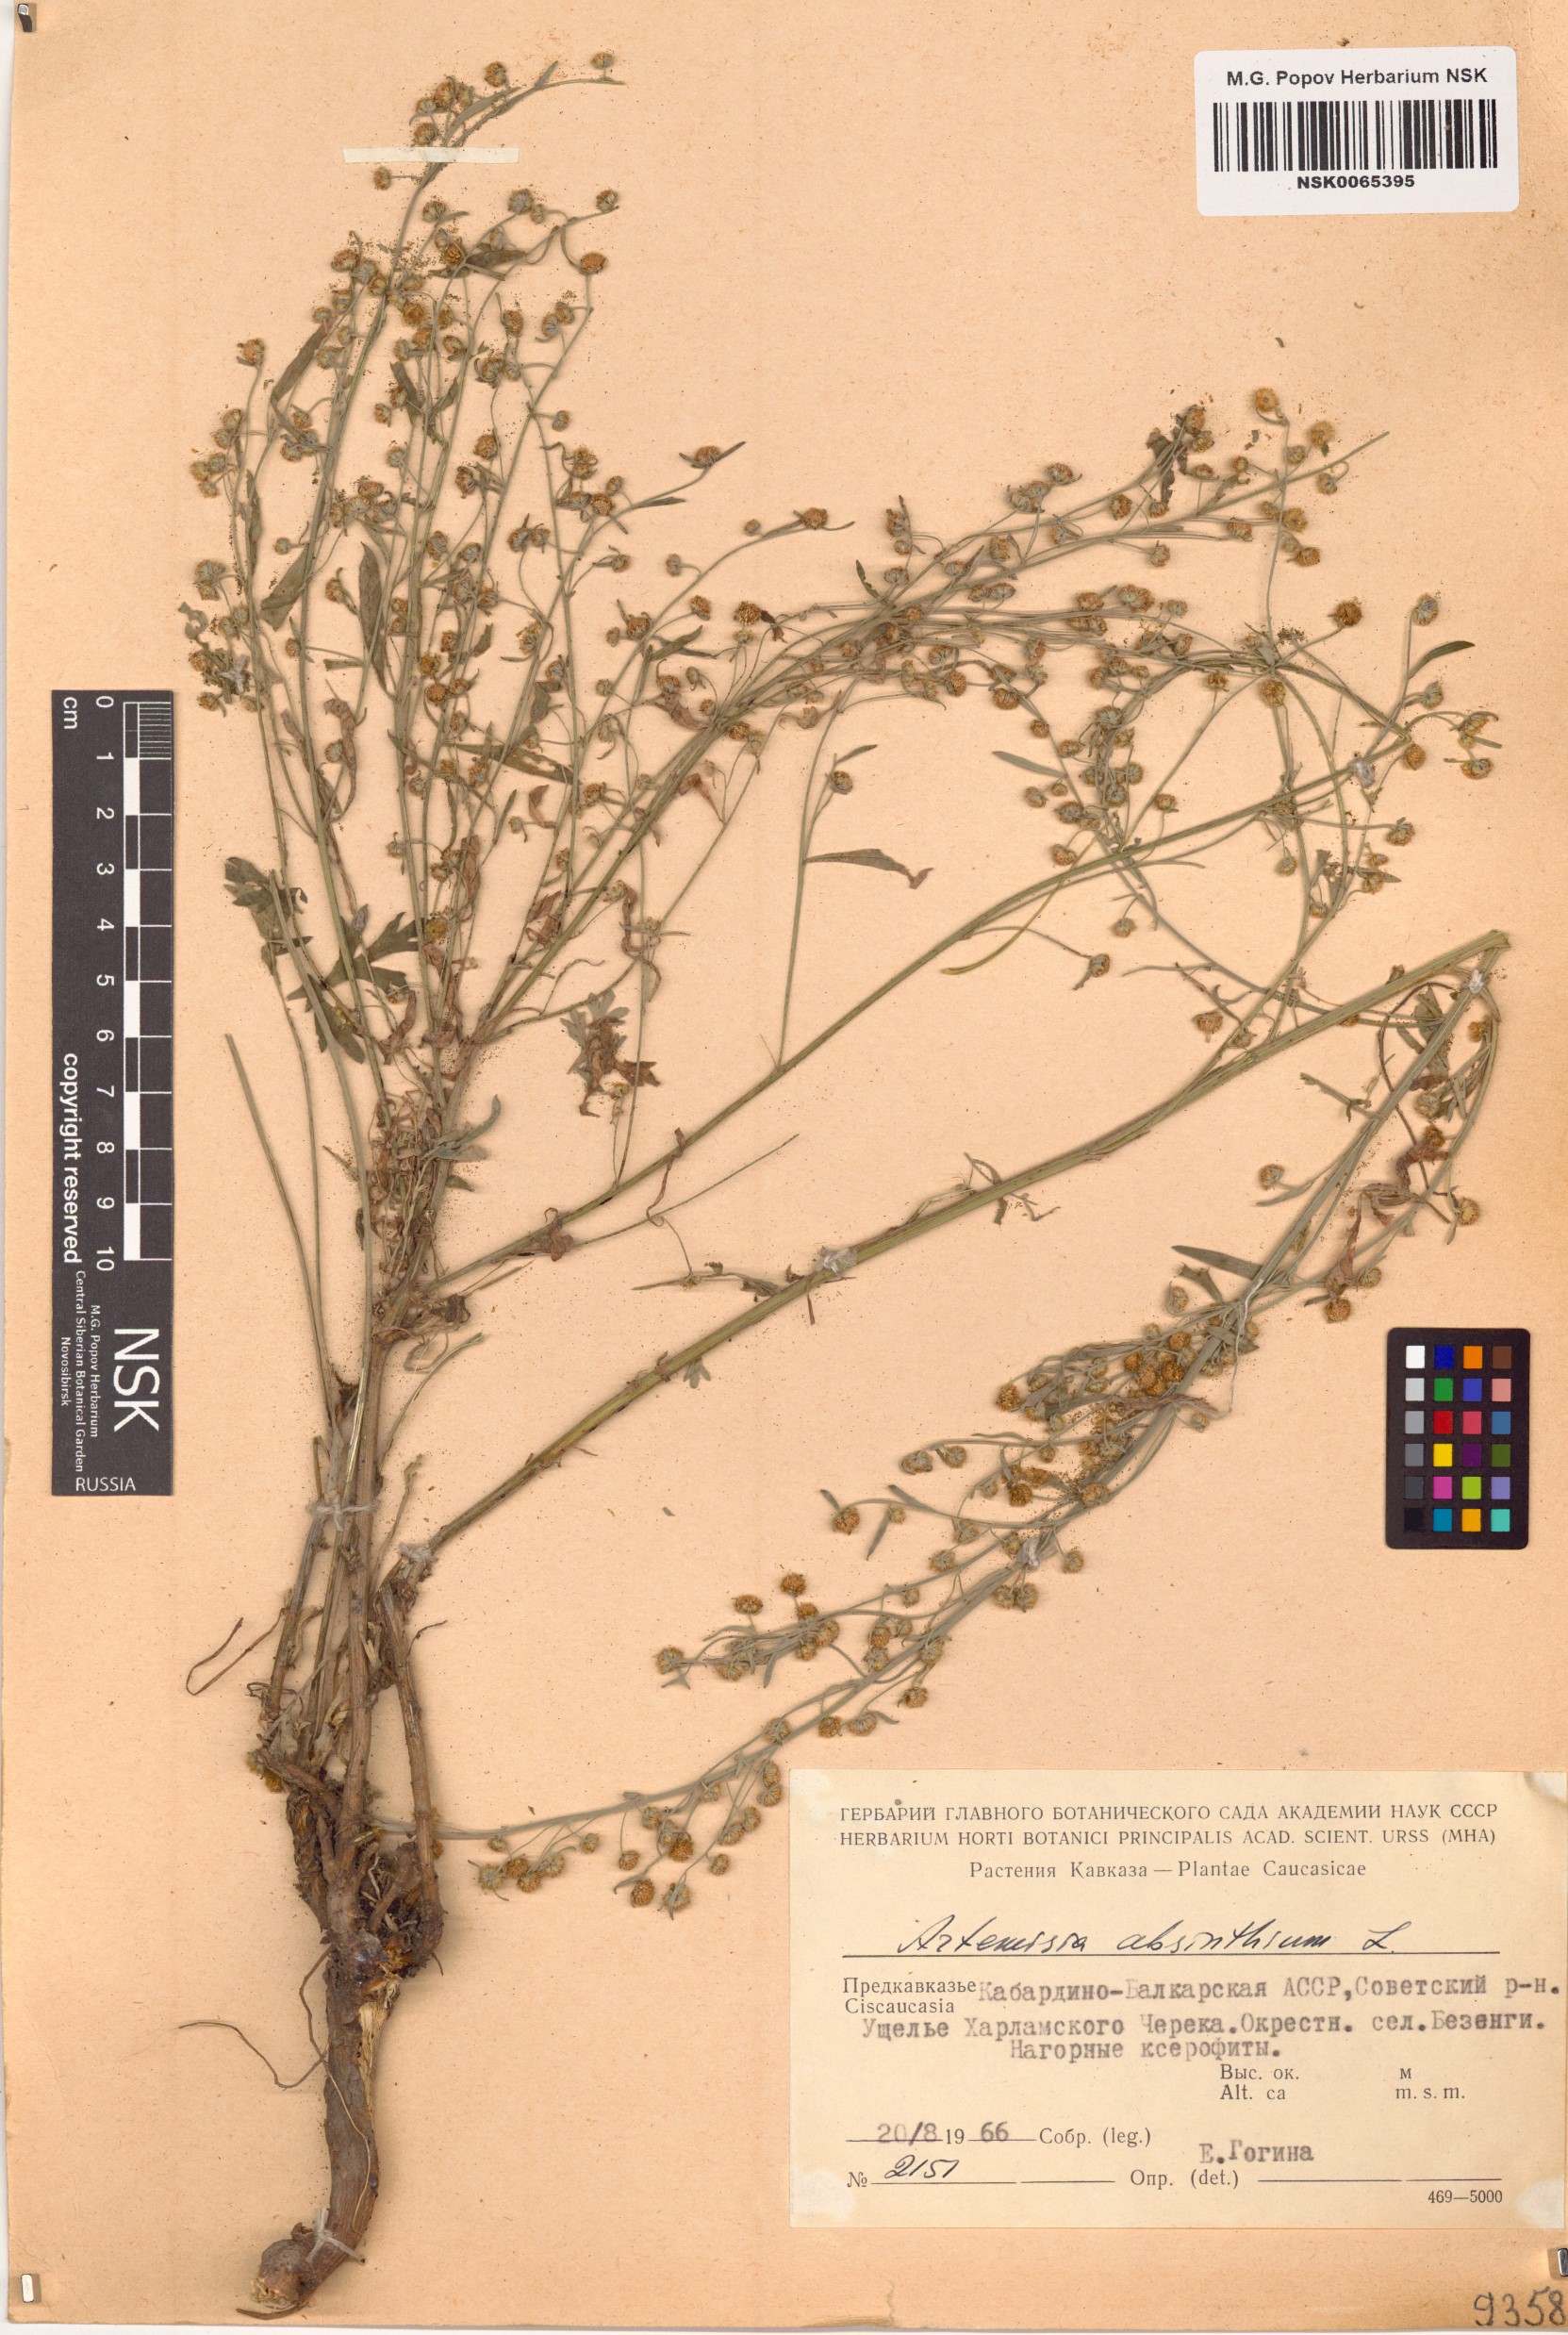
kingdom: Plantae
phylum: Tracheophyta
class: Magnoliopsida
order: Asterales
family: Asteraceae
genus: Artemisia
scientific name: Artemisia absinthium
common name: Wormwood
